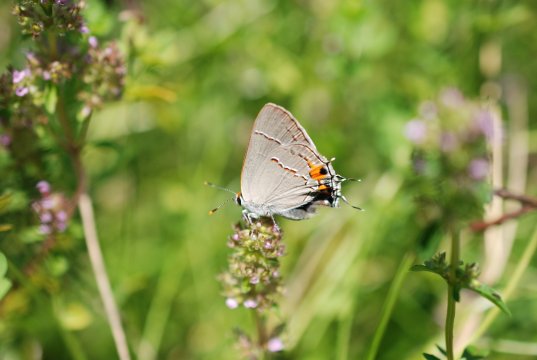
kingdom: Animalia
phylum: Arthropoda
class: Insecta
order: Lepidoptera
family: Lycaenidae
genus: Strymon
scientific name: Strymon melinus
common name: Gray Hairstreak
